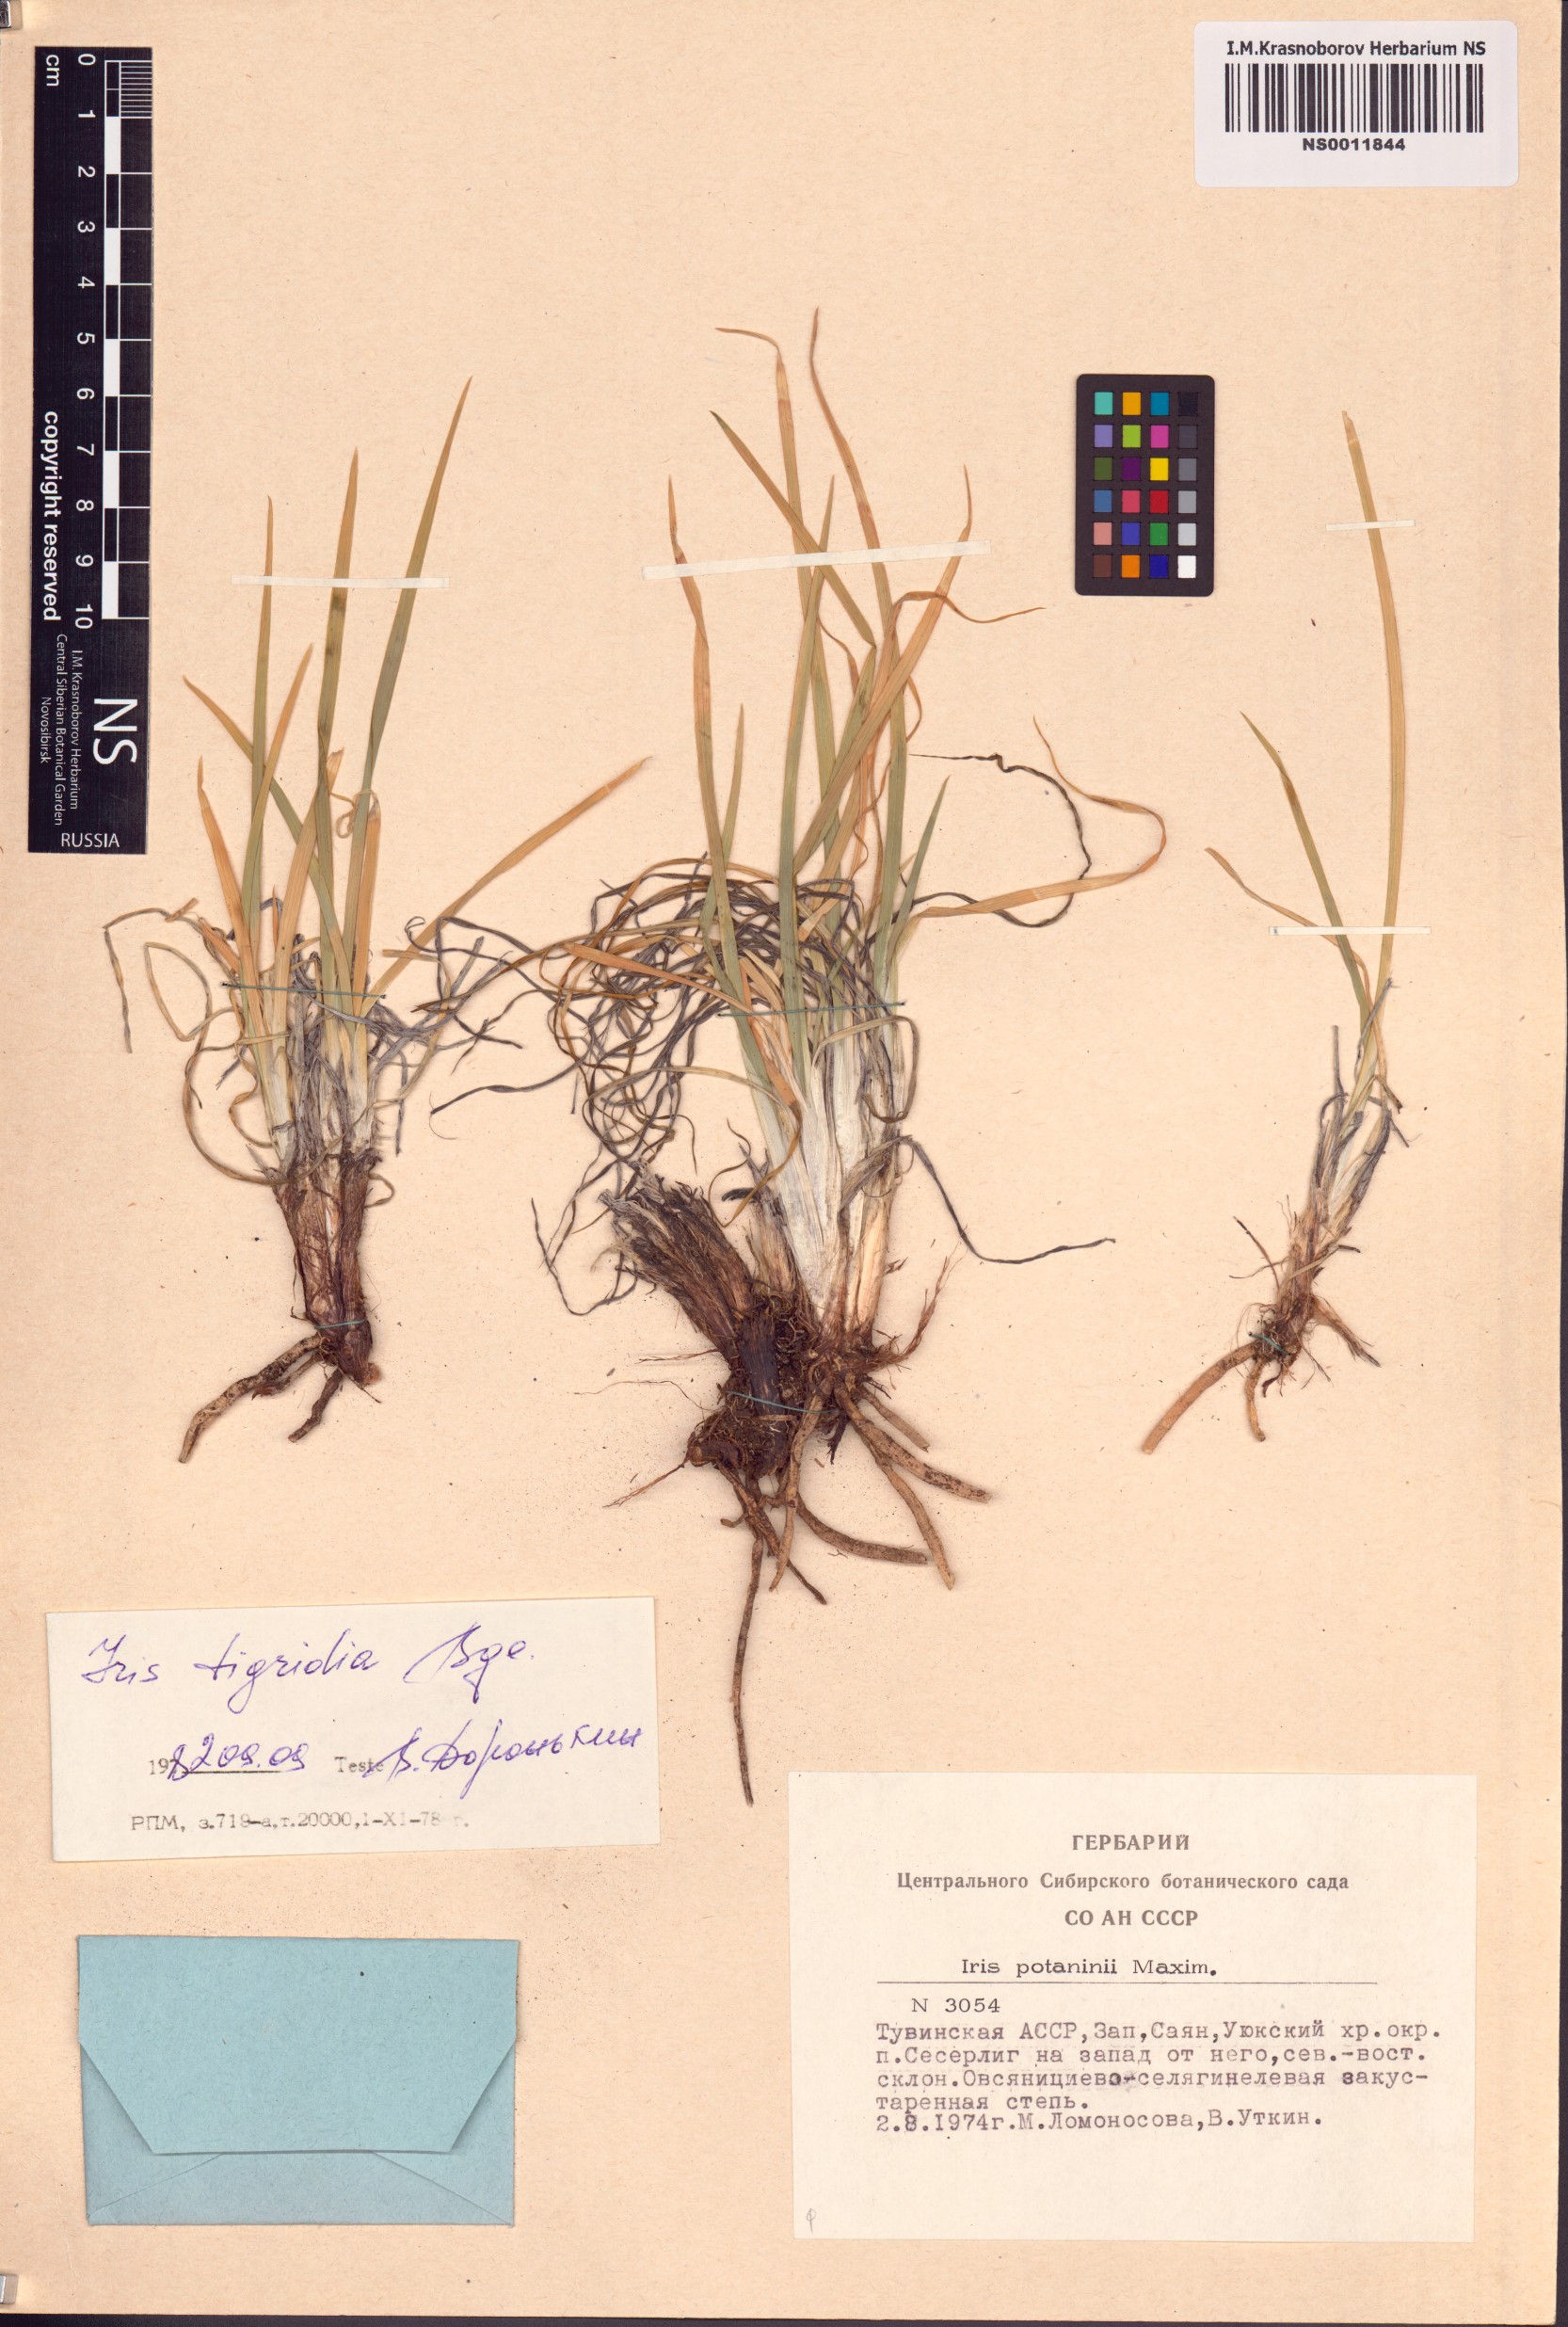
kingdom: Plantae
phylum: Tracheophyta
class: Liliopsida
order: Asparagales
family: Iridaceae
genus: Iris
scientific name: Iris tigridia
